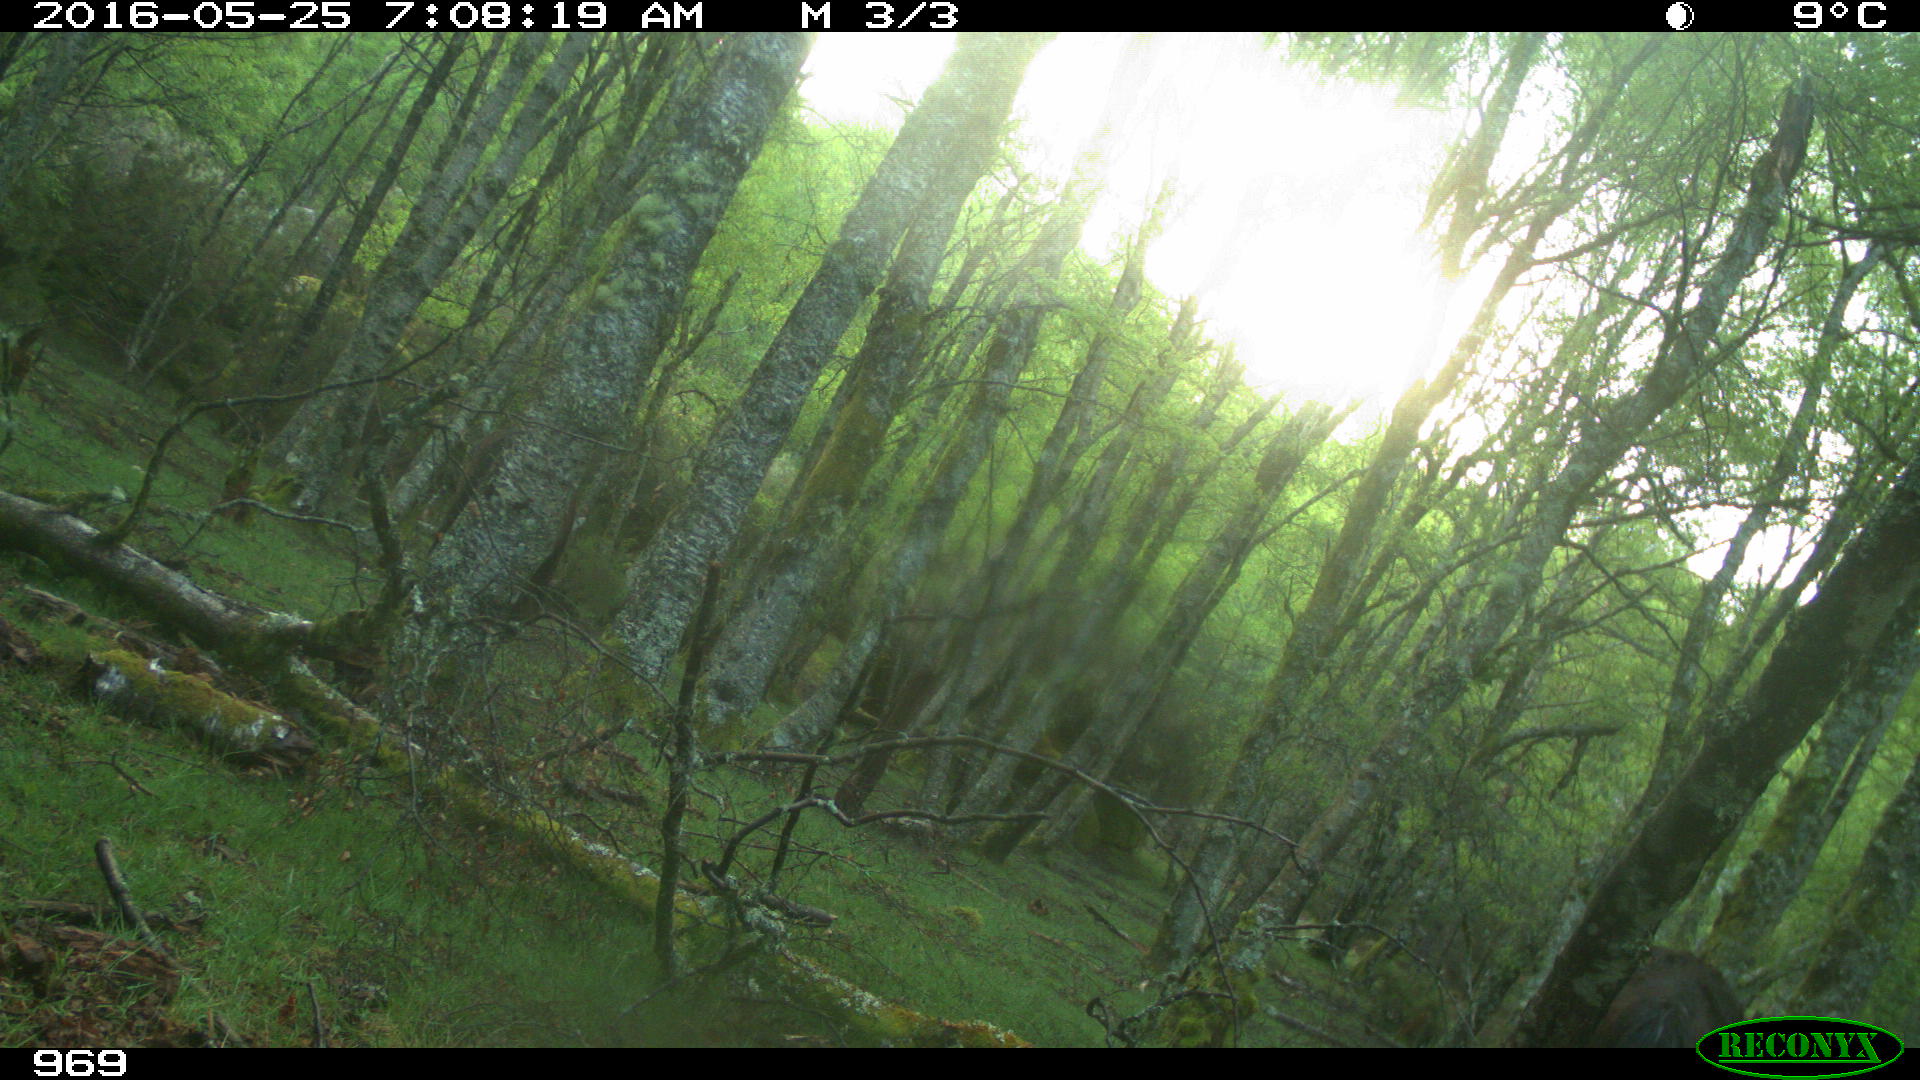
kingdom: Animalia
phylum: Chordata
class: Mammalia
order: Perissodactyla
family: Equidae
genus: Equus
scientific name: Equus caballus
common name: Horse
